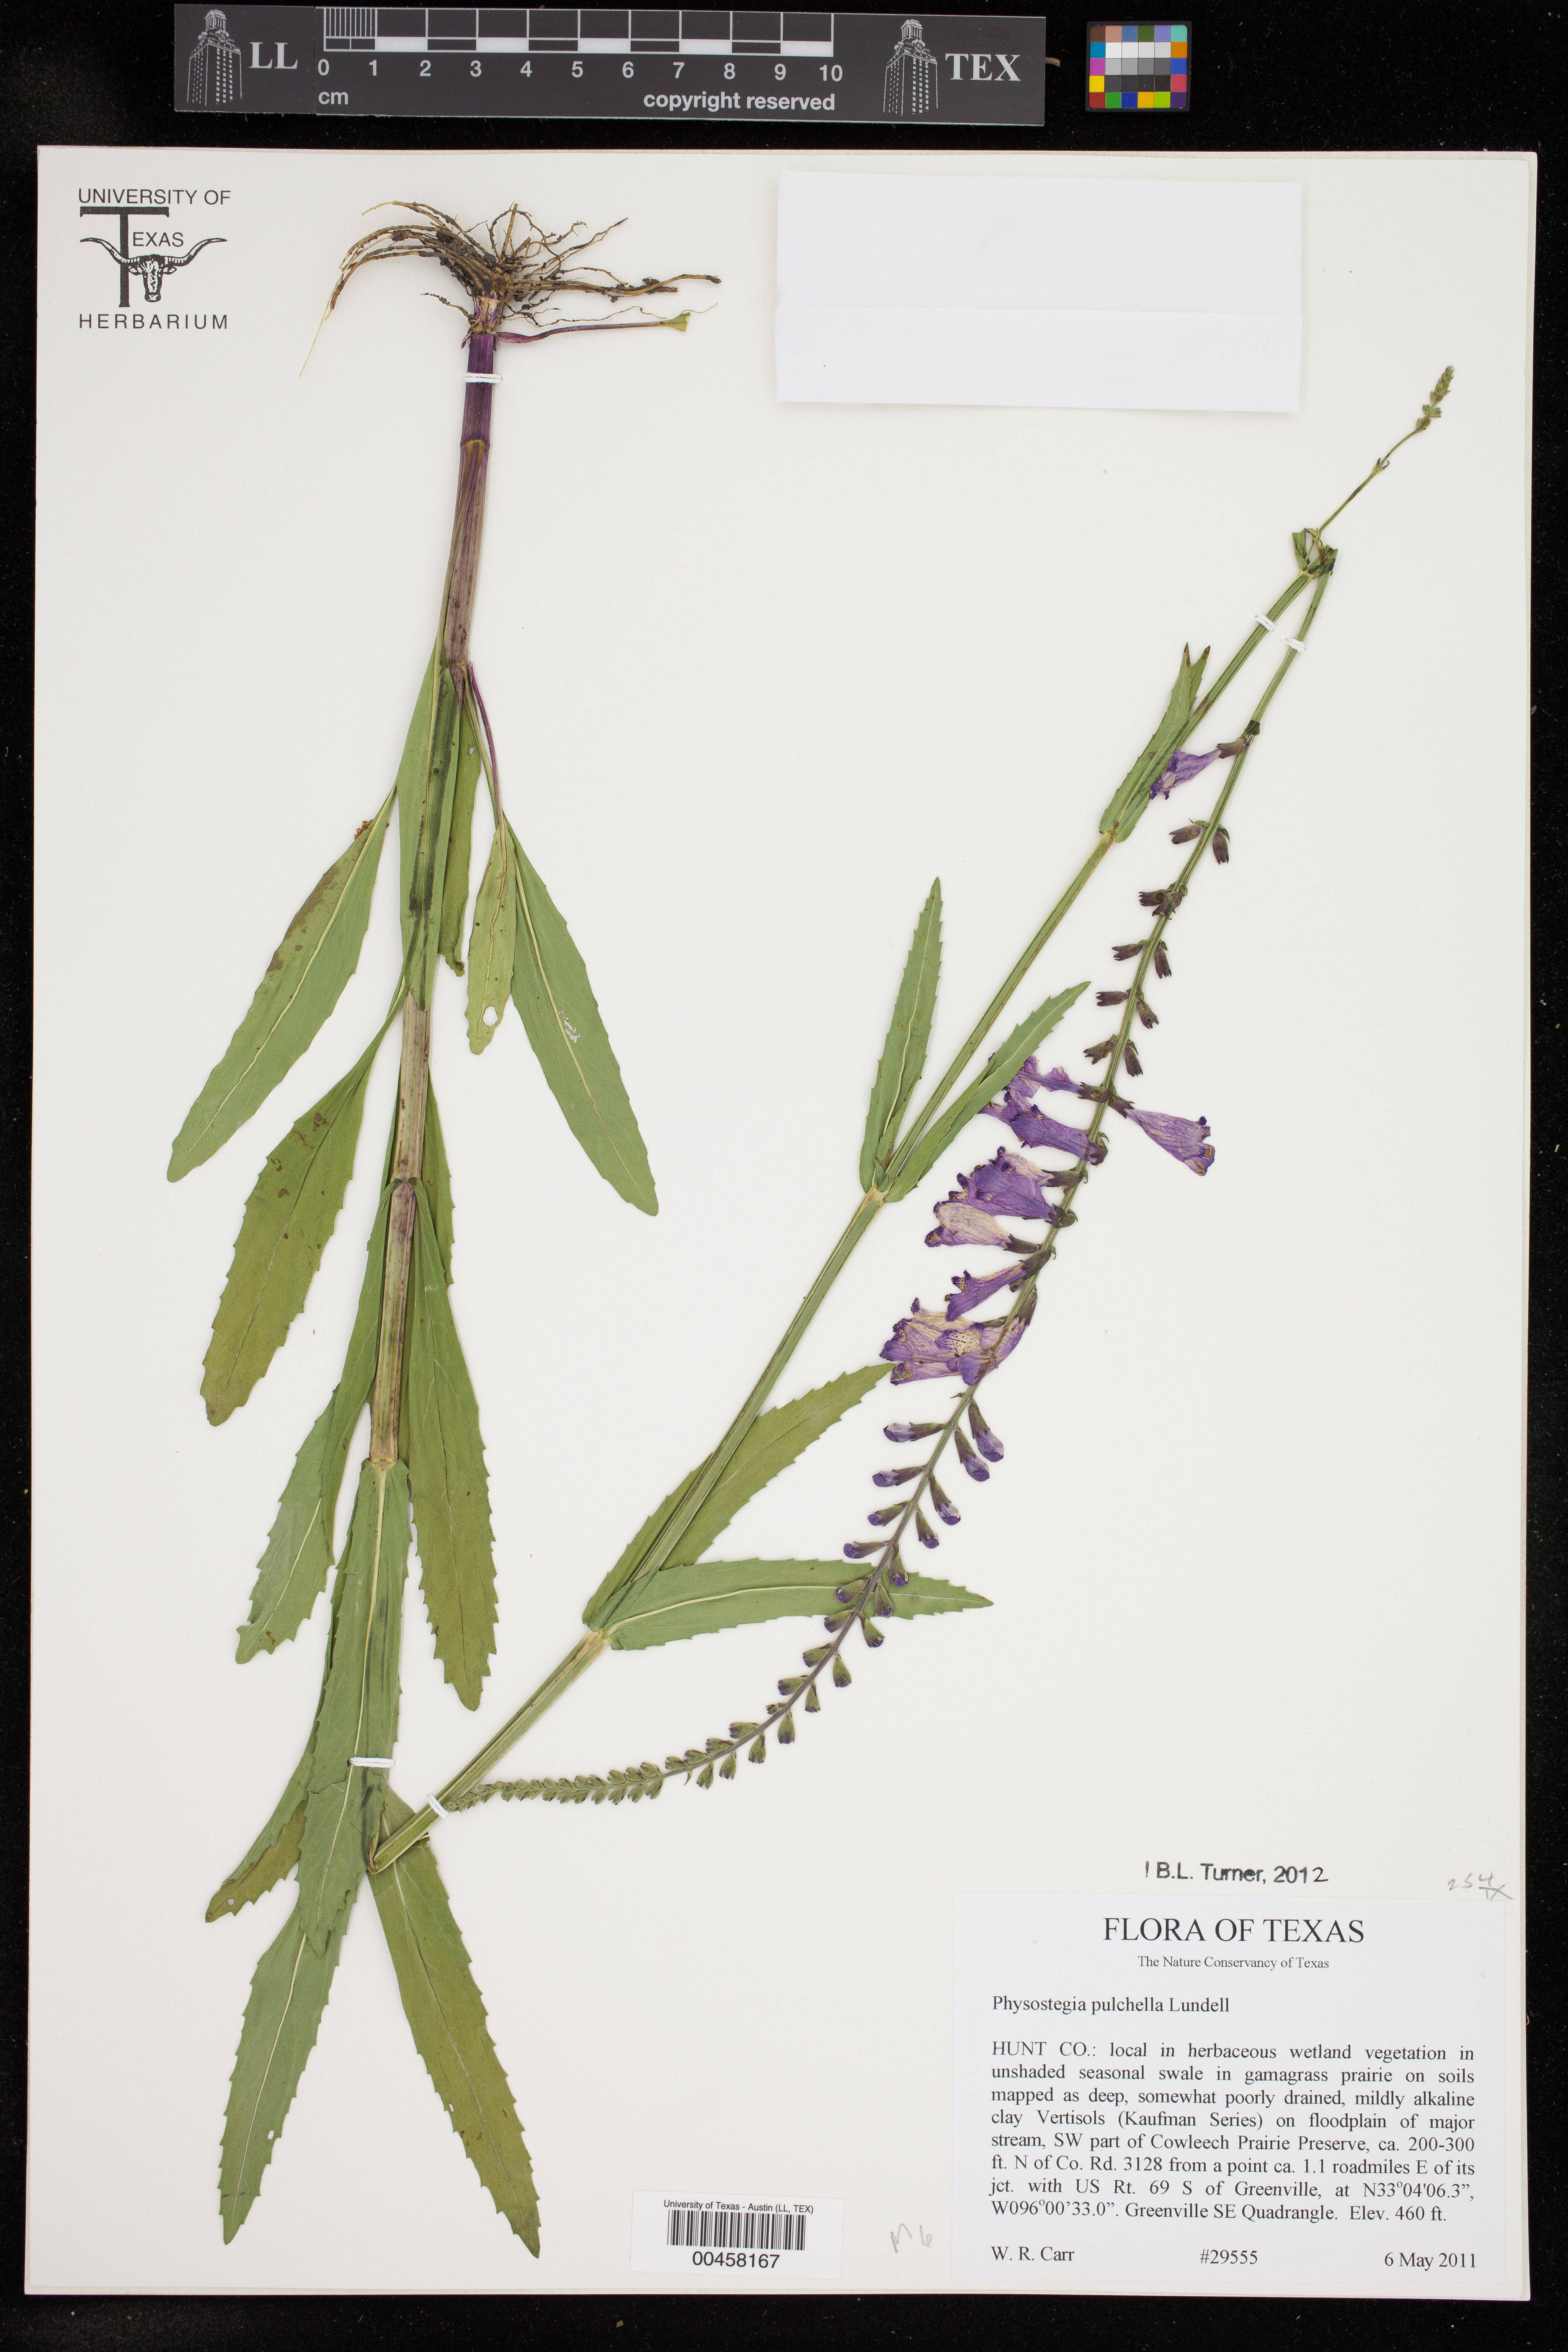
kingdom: Plantae
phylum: Tracheophyta
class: Magnoliopsida
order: Lamiales
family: Lamiaceae
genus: Physostegia
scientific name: Physostegia virginiana
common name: Obedient-plant
